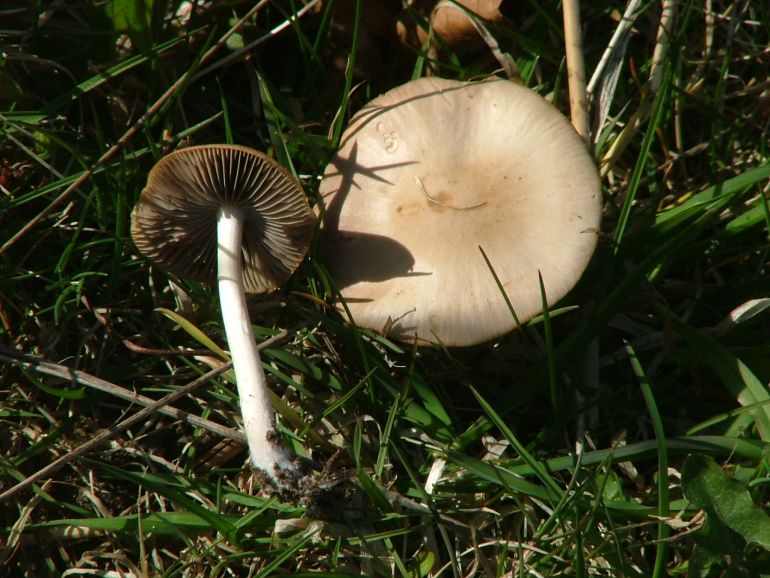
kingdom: Fungi
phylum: Basidiomycota
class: Agaricomycetes
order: Agaricales
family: Psathyrellaceae
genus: Psathyrella
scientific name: Psathyrella spadiceogrisea
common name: gråbrun mørkhat
